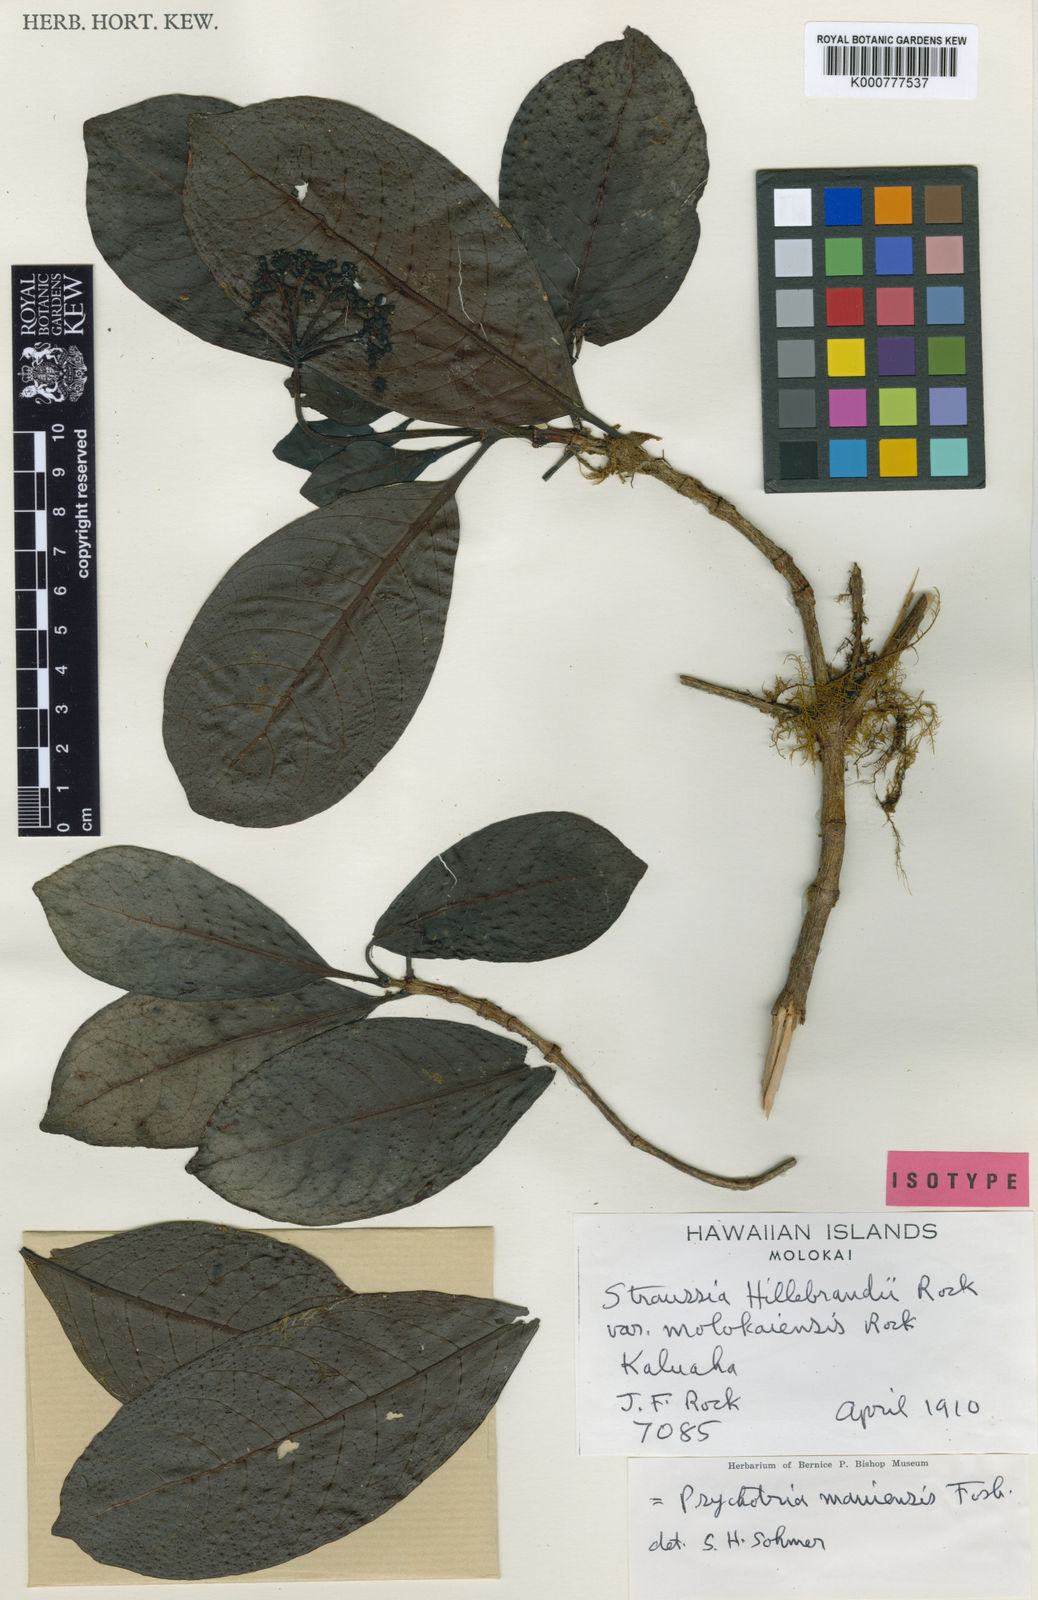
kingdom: Plantae
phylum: Tracheophyta
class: Magnoliopsida
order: Gentianales
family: Rubiaceae
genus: Psychotria
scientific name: Psychotria mauiensis
